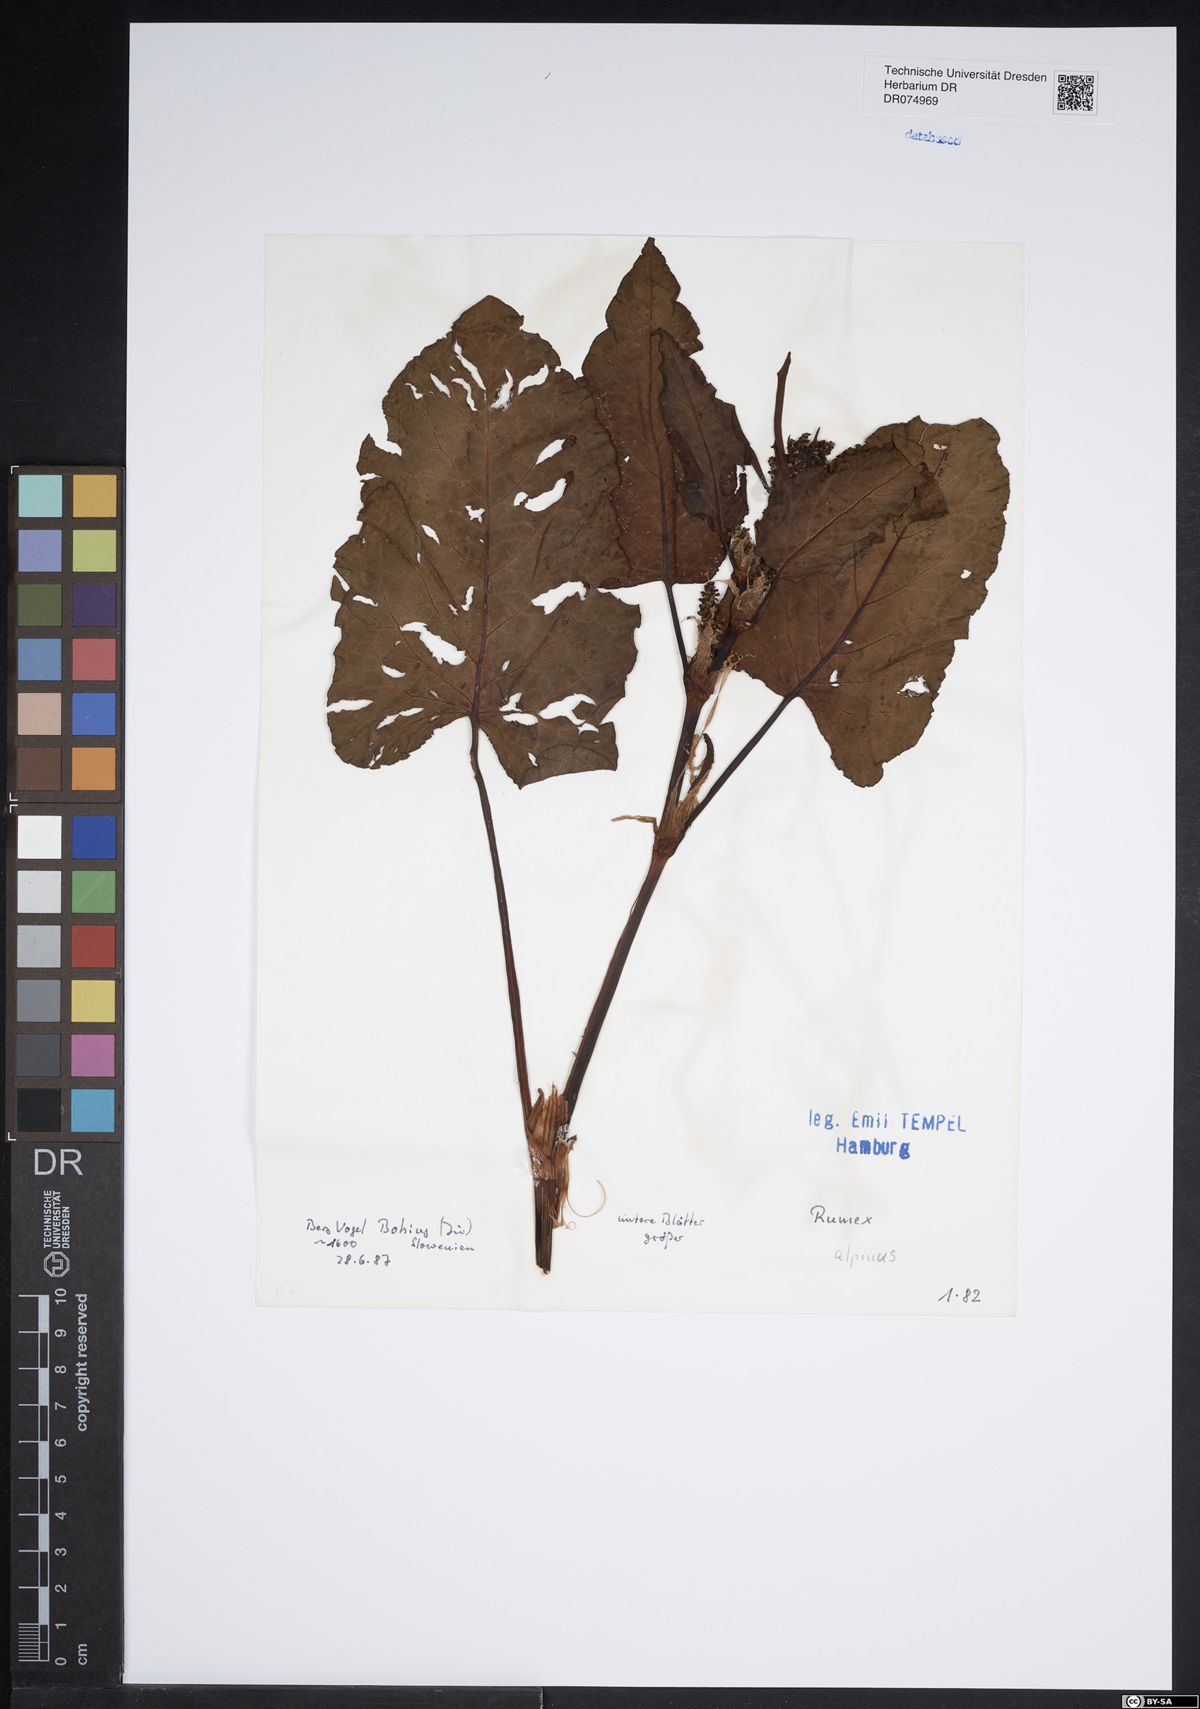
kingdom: Plantae
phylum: Tracheophyta
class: Magnoliopsida
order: Caryophyllales
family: Polygonaceae
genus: Rumex
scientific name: Rumex alpinus
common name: Alpine dock
